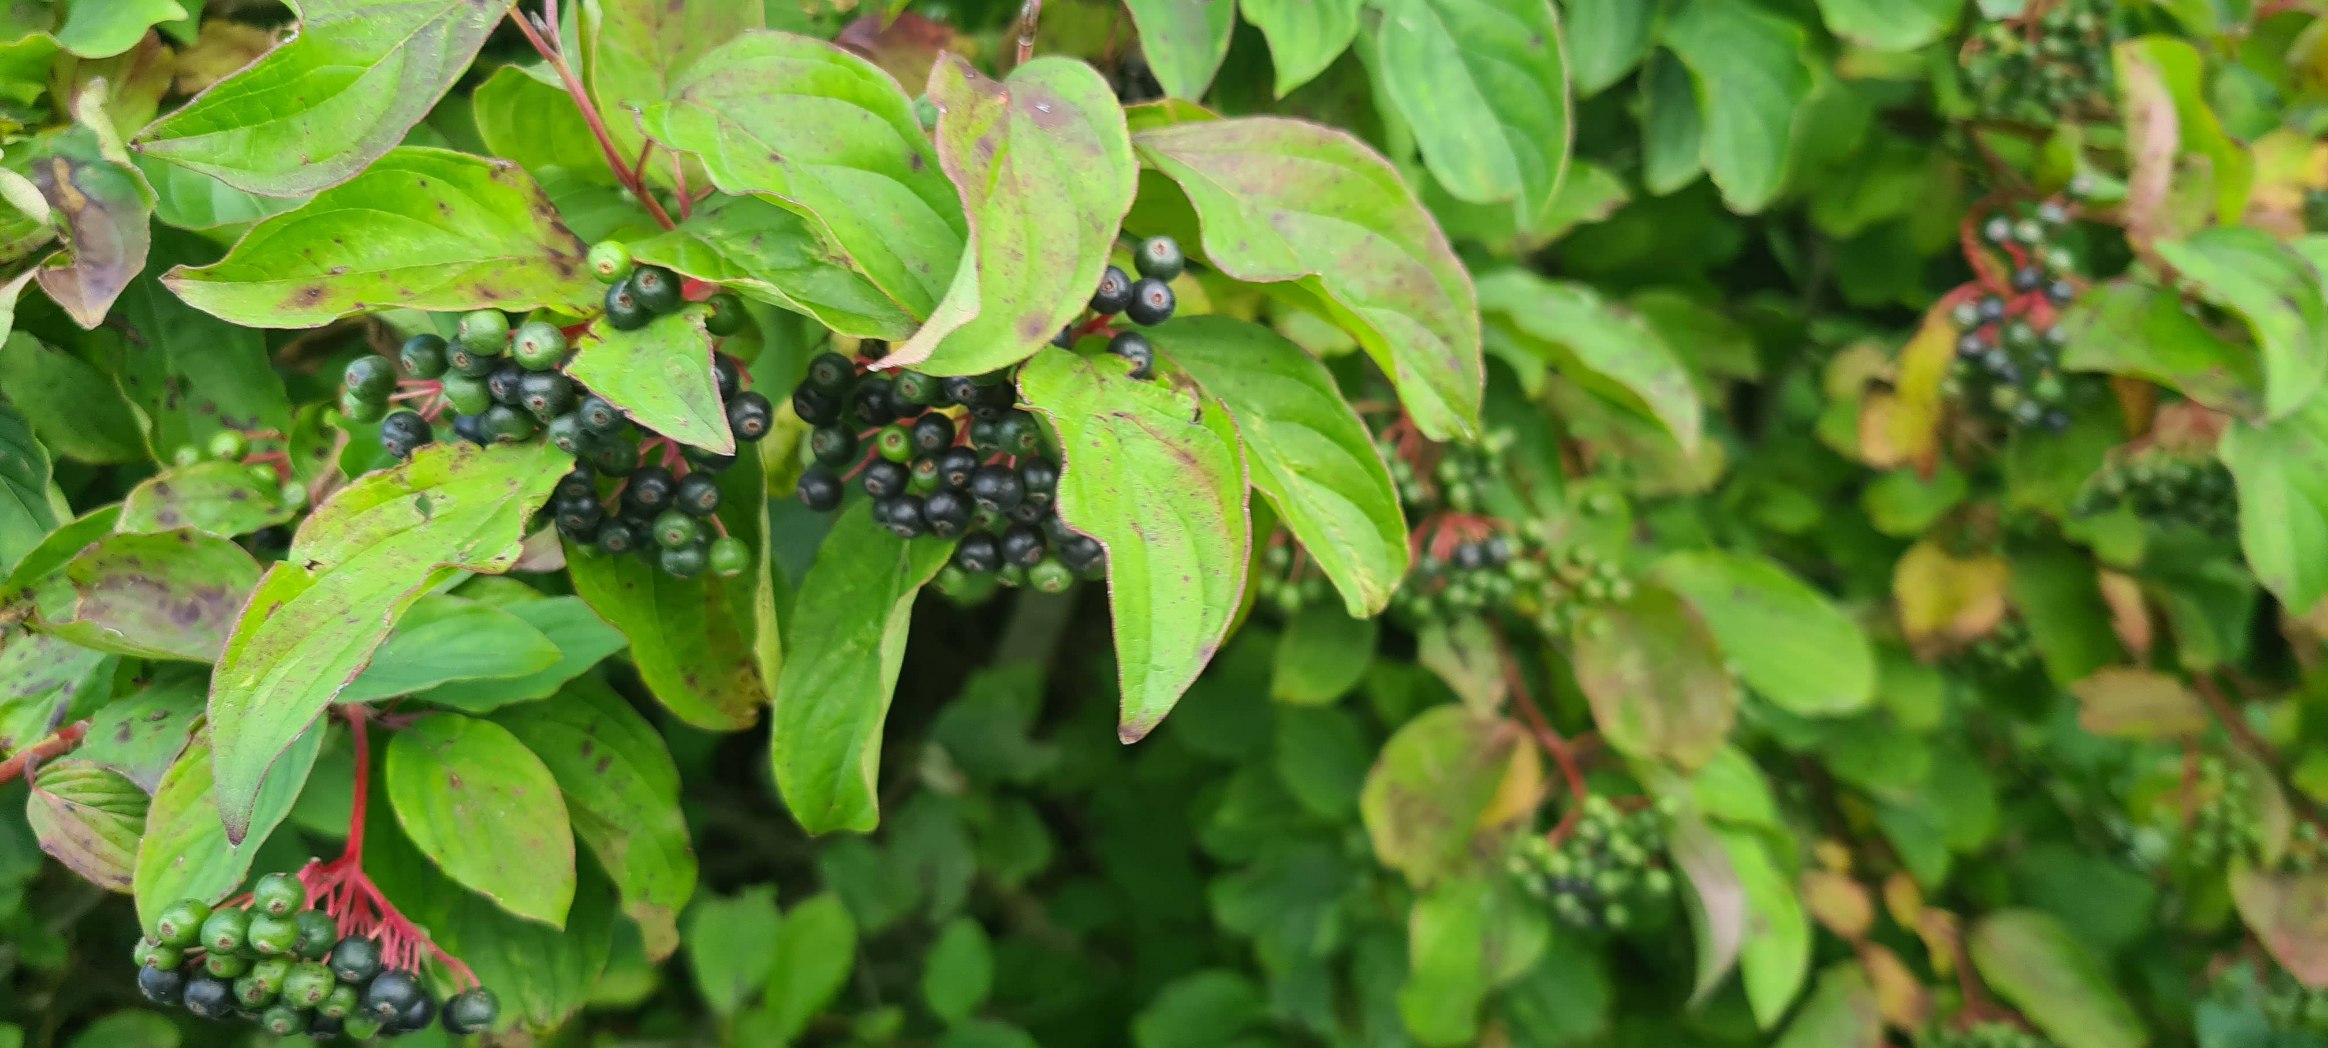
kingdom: Plantae
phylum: Tracheophyta
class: Magnoliopsida
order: Cornales
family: Cornaceae
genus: Cornus
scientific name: Cornus sanguinea
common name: Rød kornel
